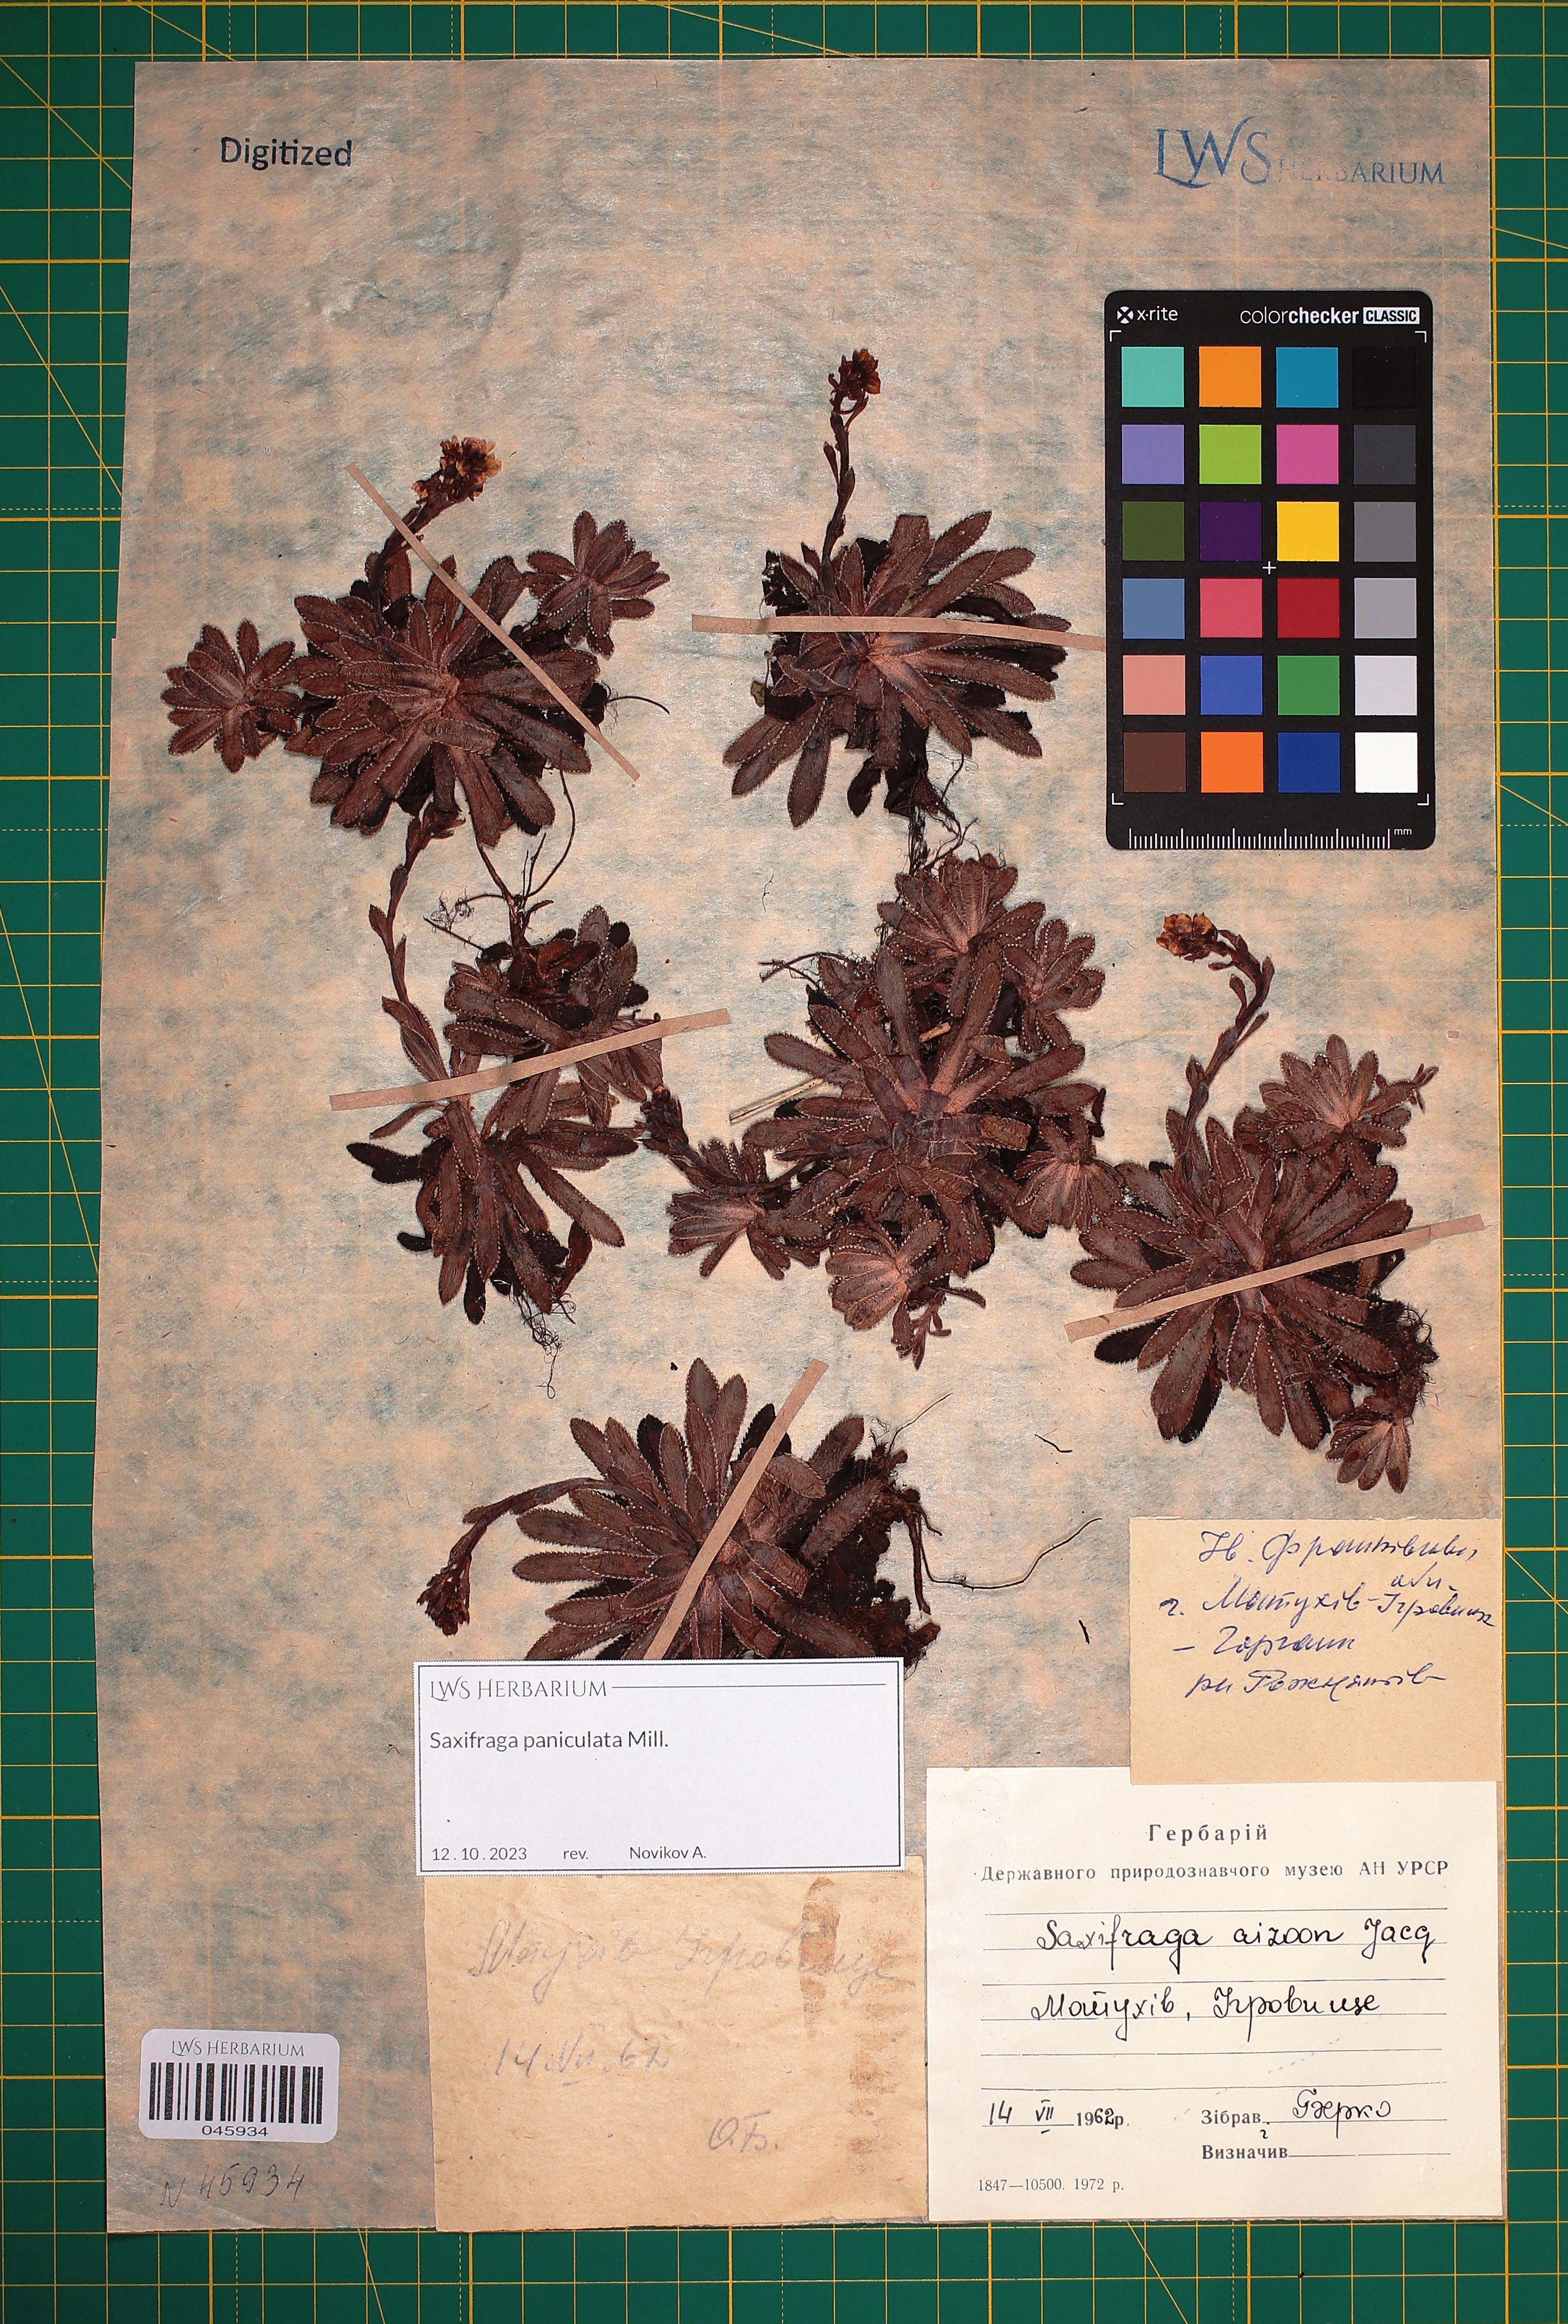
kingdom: Plantae
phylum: Tracheophyta
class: Magnoliopsida
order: Saxifragales
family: Saxifragaceae
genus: Saxifraga
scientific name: Saxifraga paniculata
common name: Livelong saxifrage
